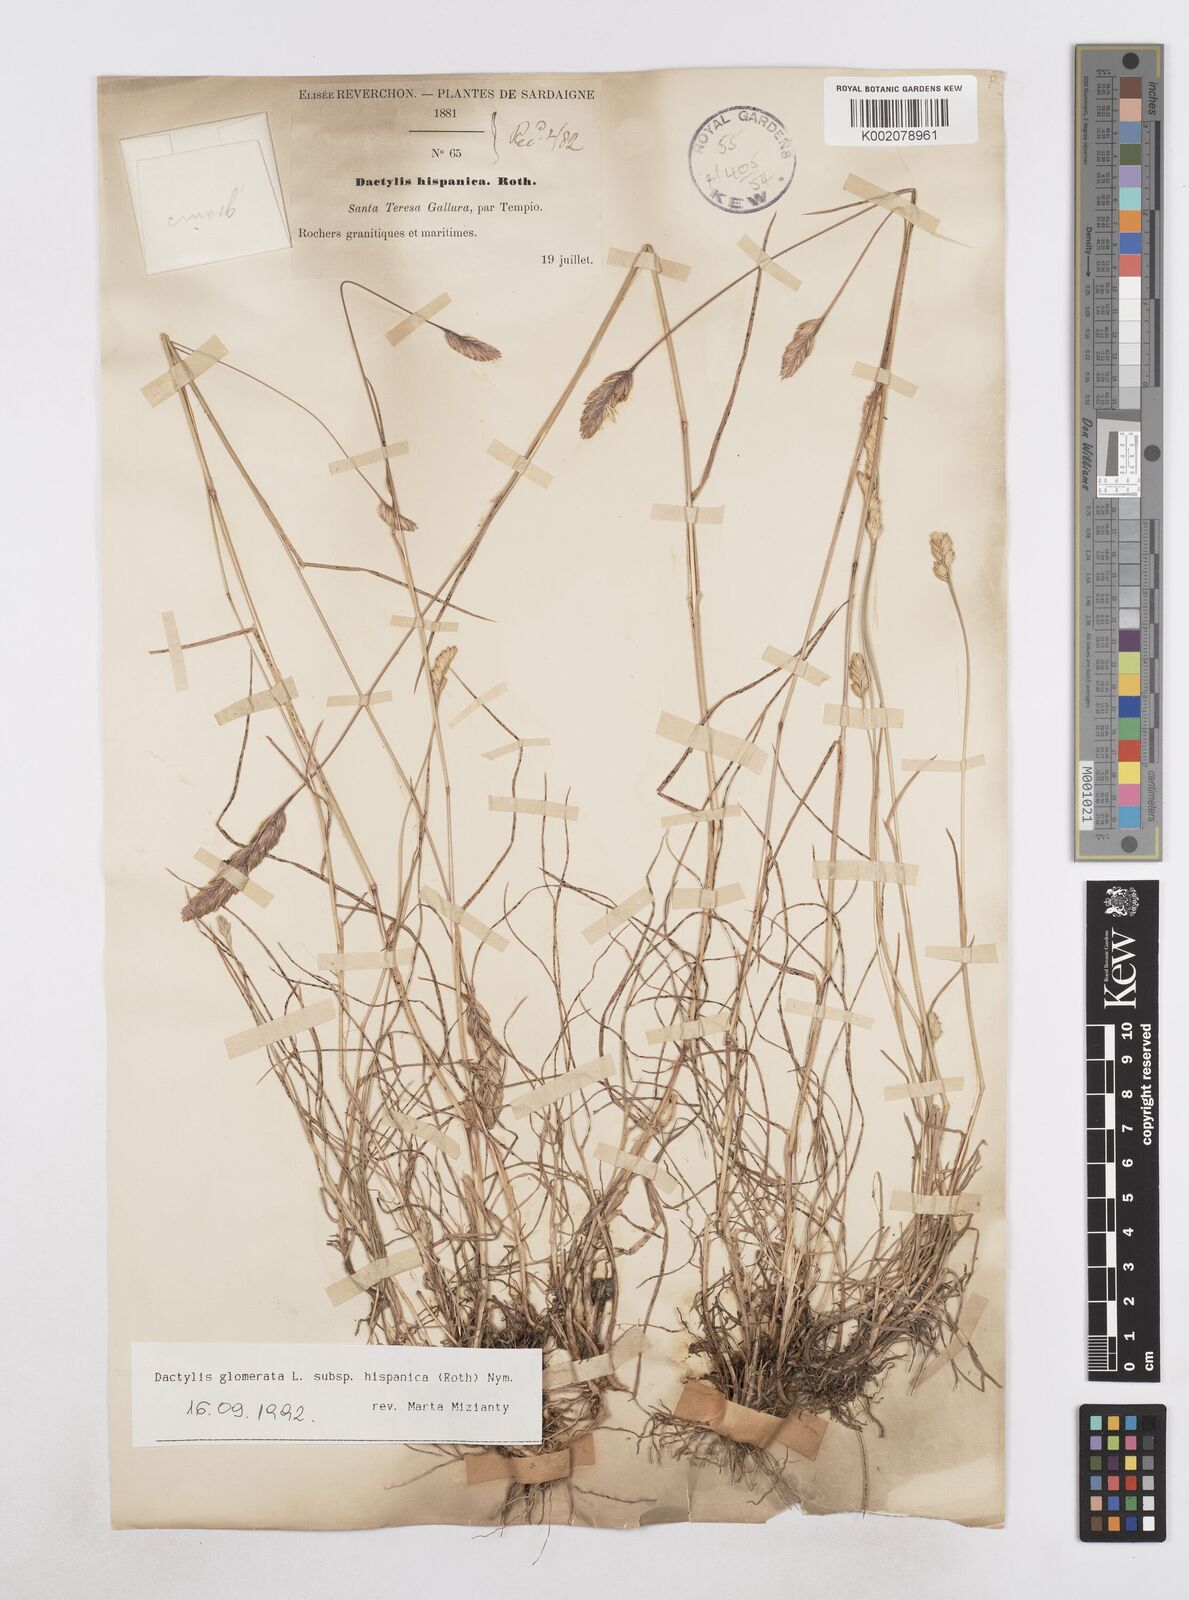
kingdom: Plantae
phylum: Tracheophyta
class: Liliopsida
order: Poales
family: Poaceae
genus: Dactylis
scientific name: Dactylis glomerata
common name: Orchardgrass
